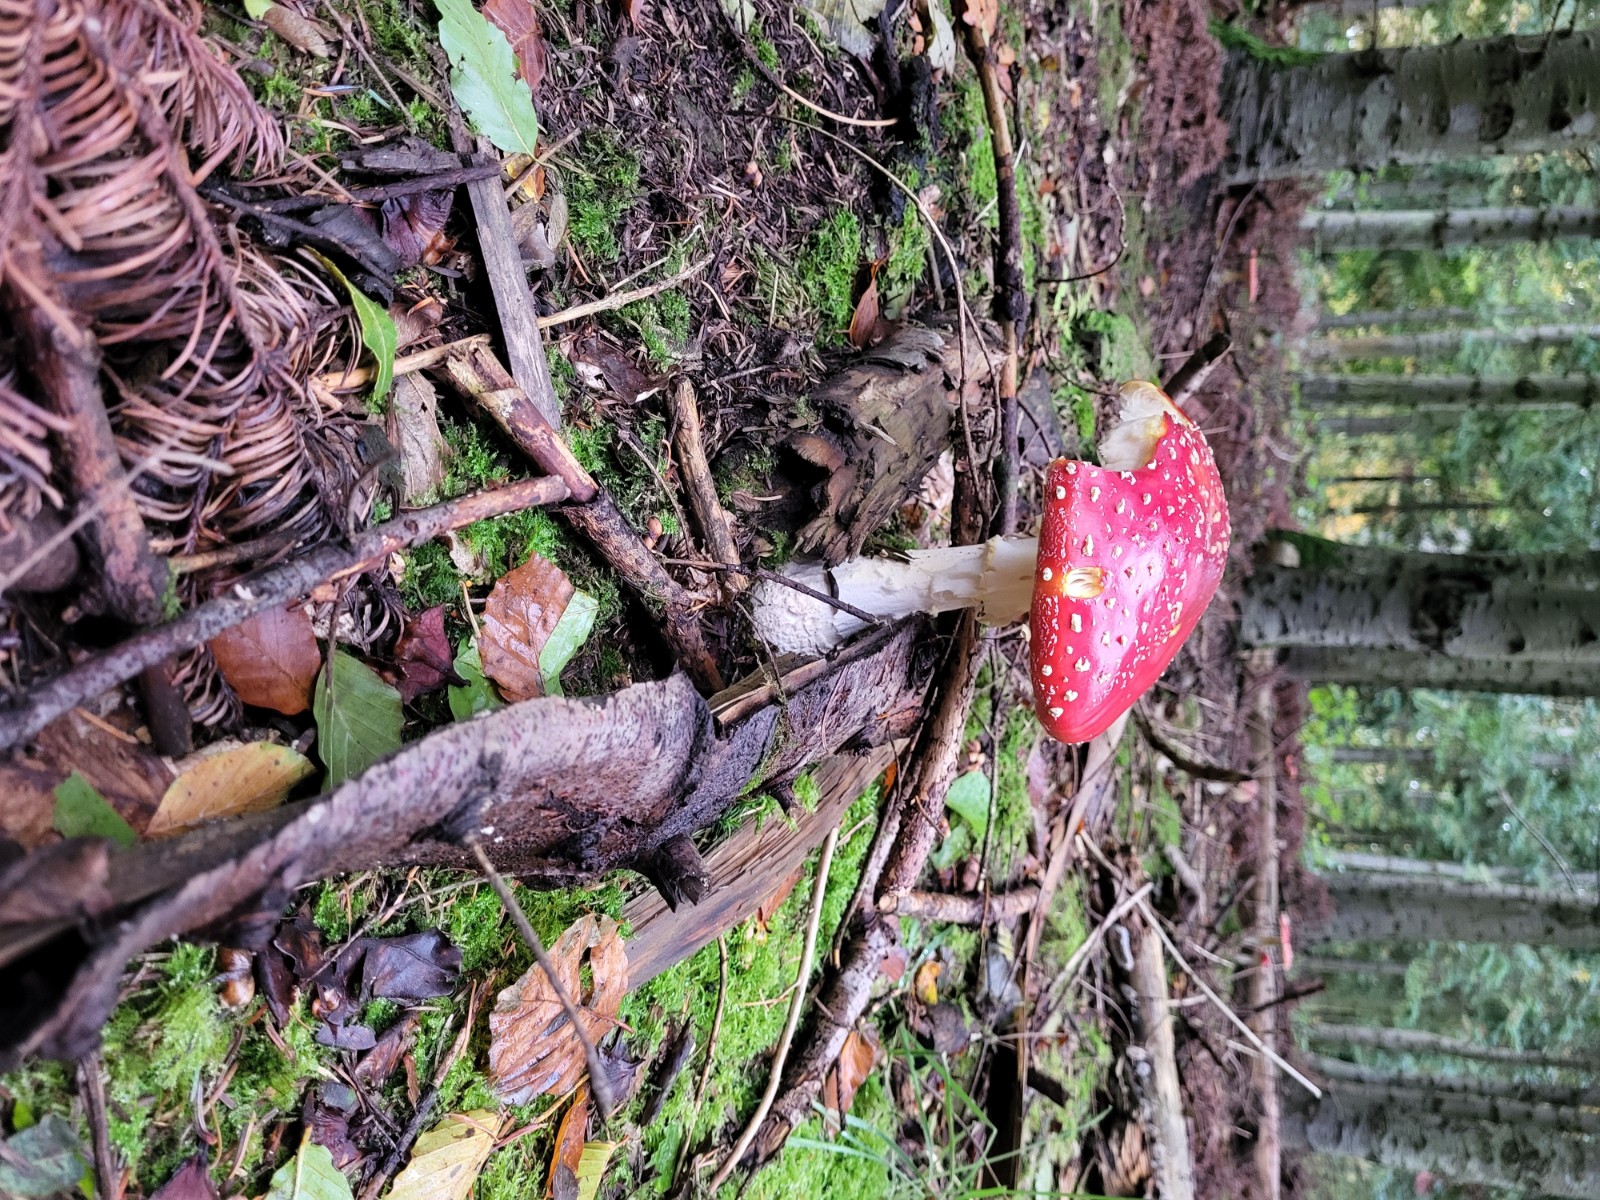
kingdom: Fungi
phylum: Basidiomycota
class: Agaricomycetes
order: Agaricales
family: Amanitaceae
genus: Amanita
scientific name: Amanita muscaria
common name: rød fluesvamp
